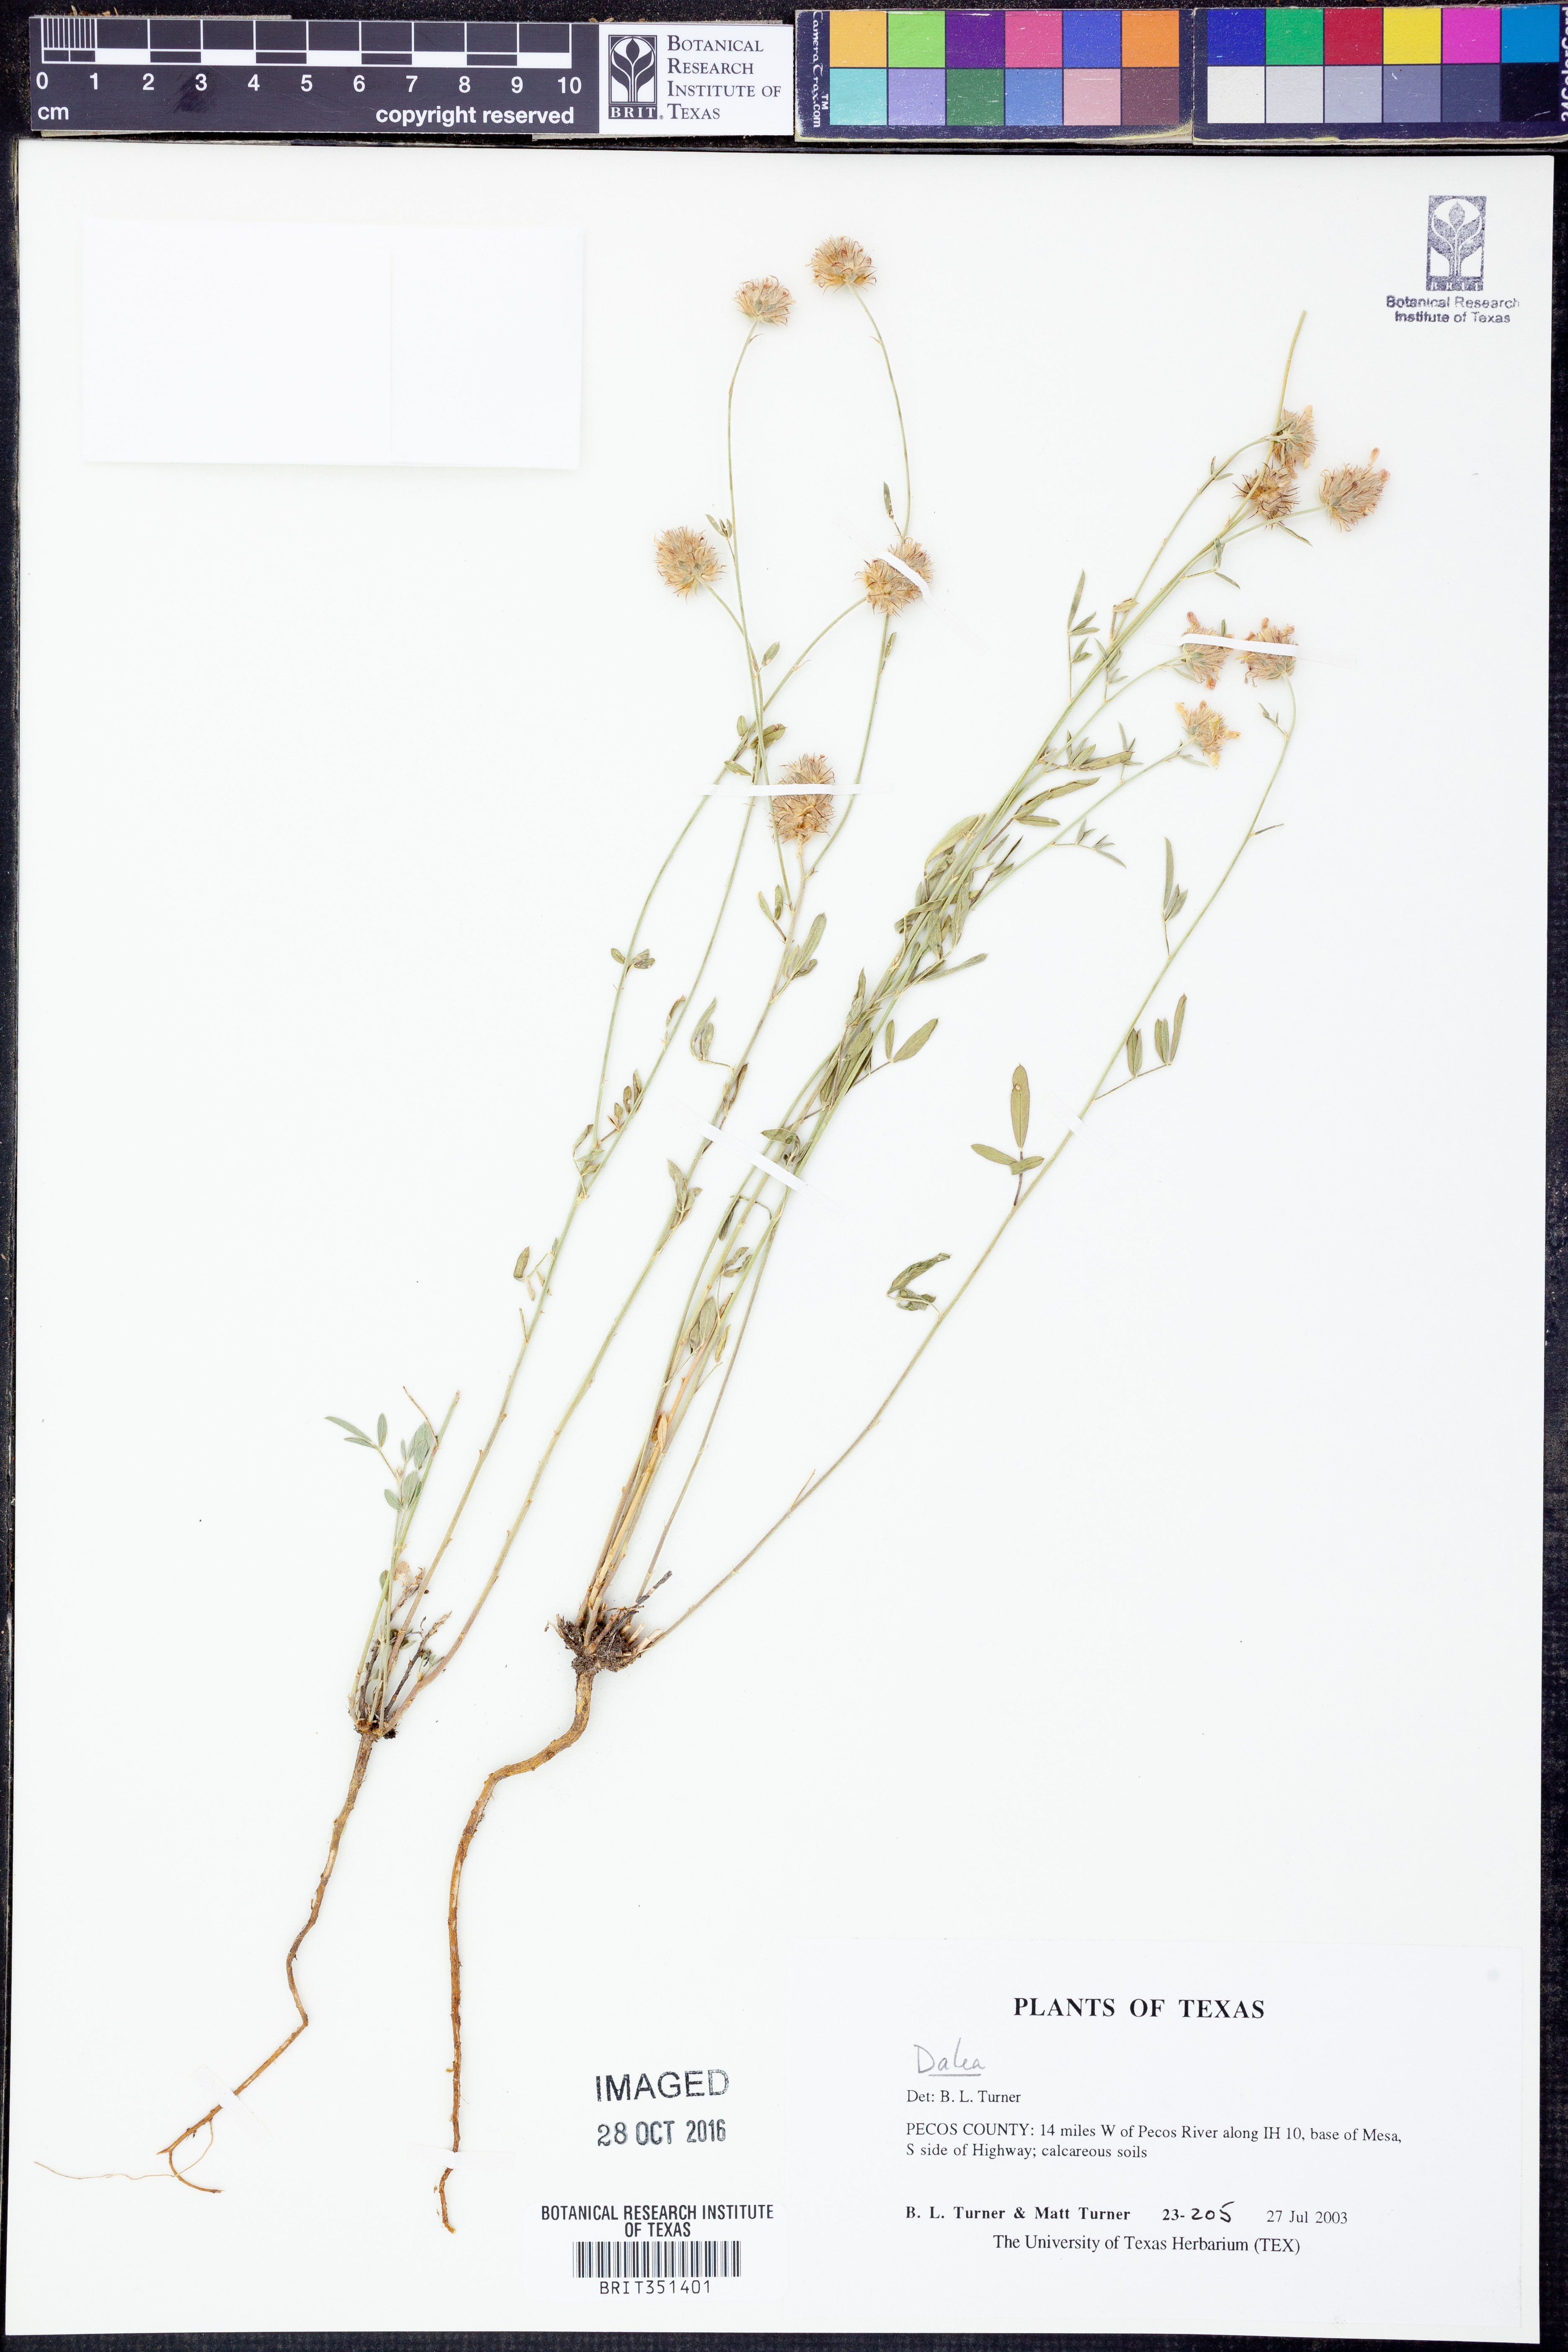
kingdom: Plantae
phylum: Tracheophyta
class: Magnoliopsida
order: Fabales
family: Fabaceae
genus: Dalea
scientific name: Dalea
